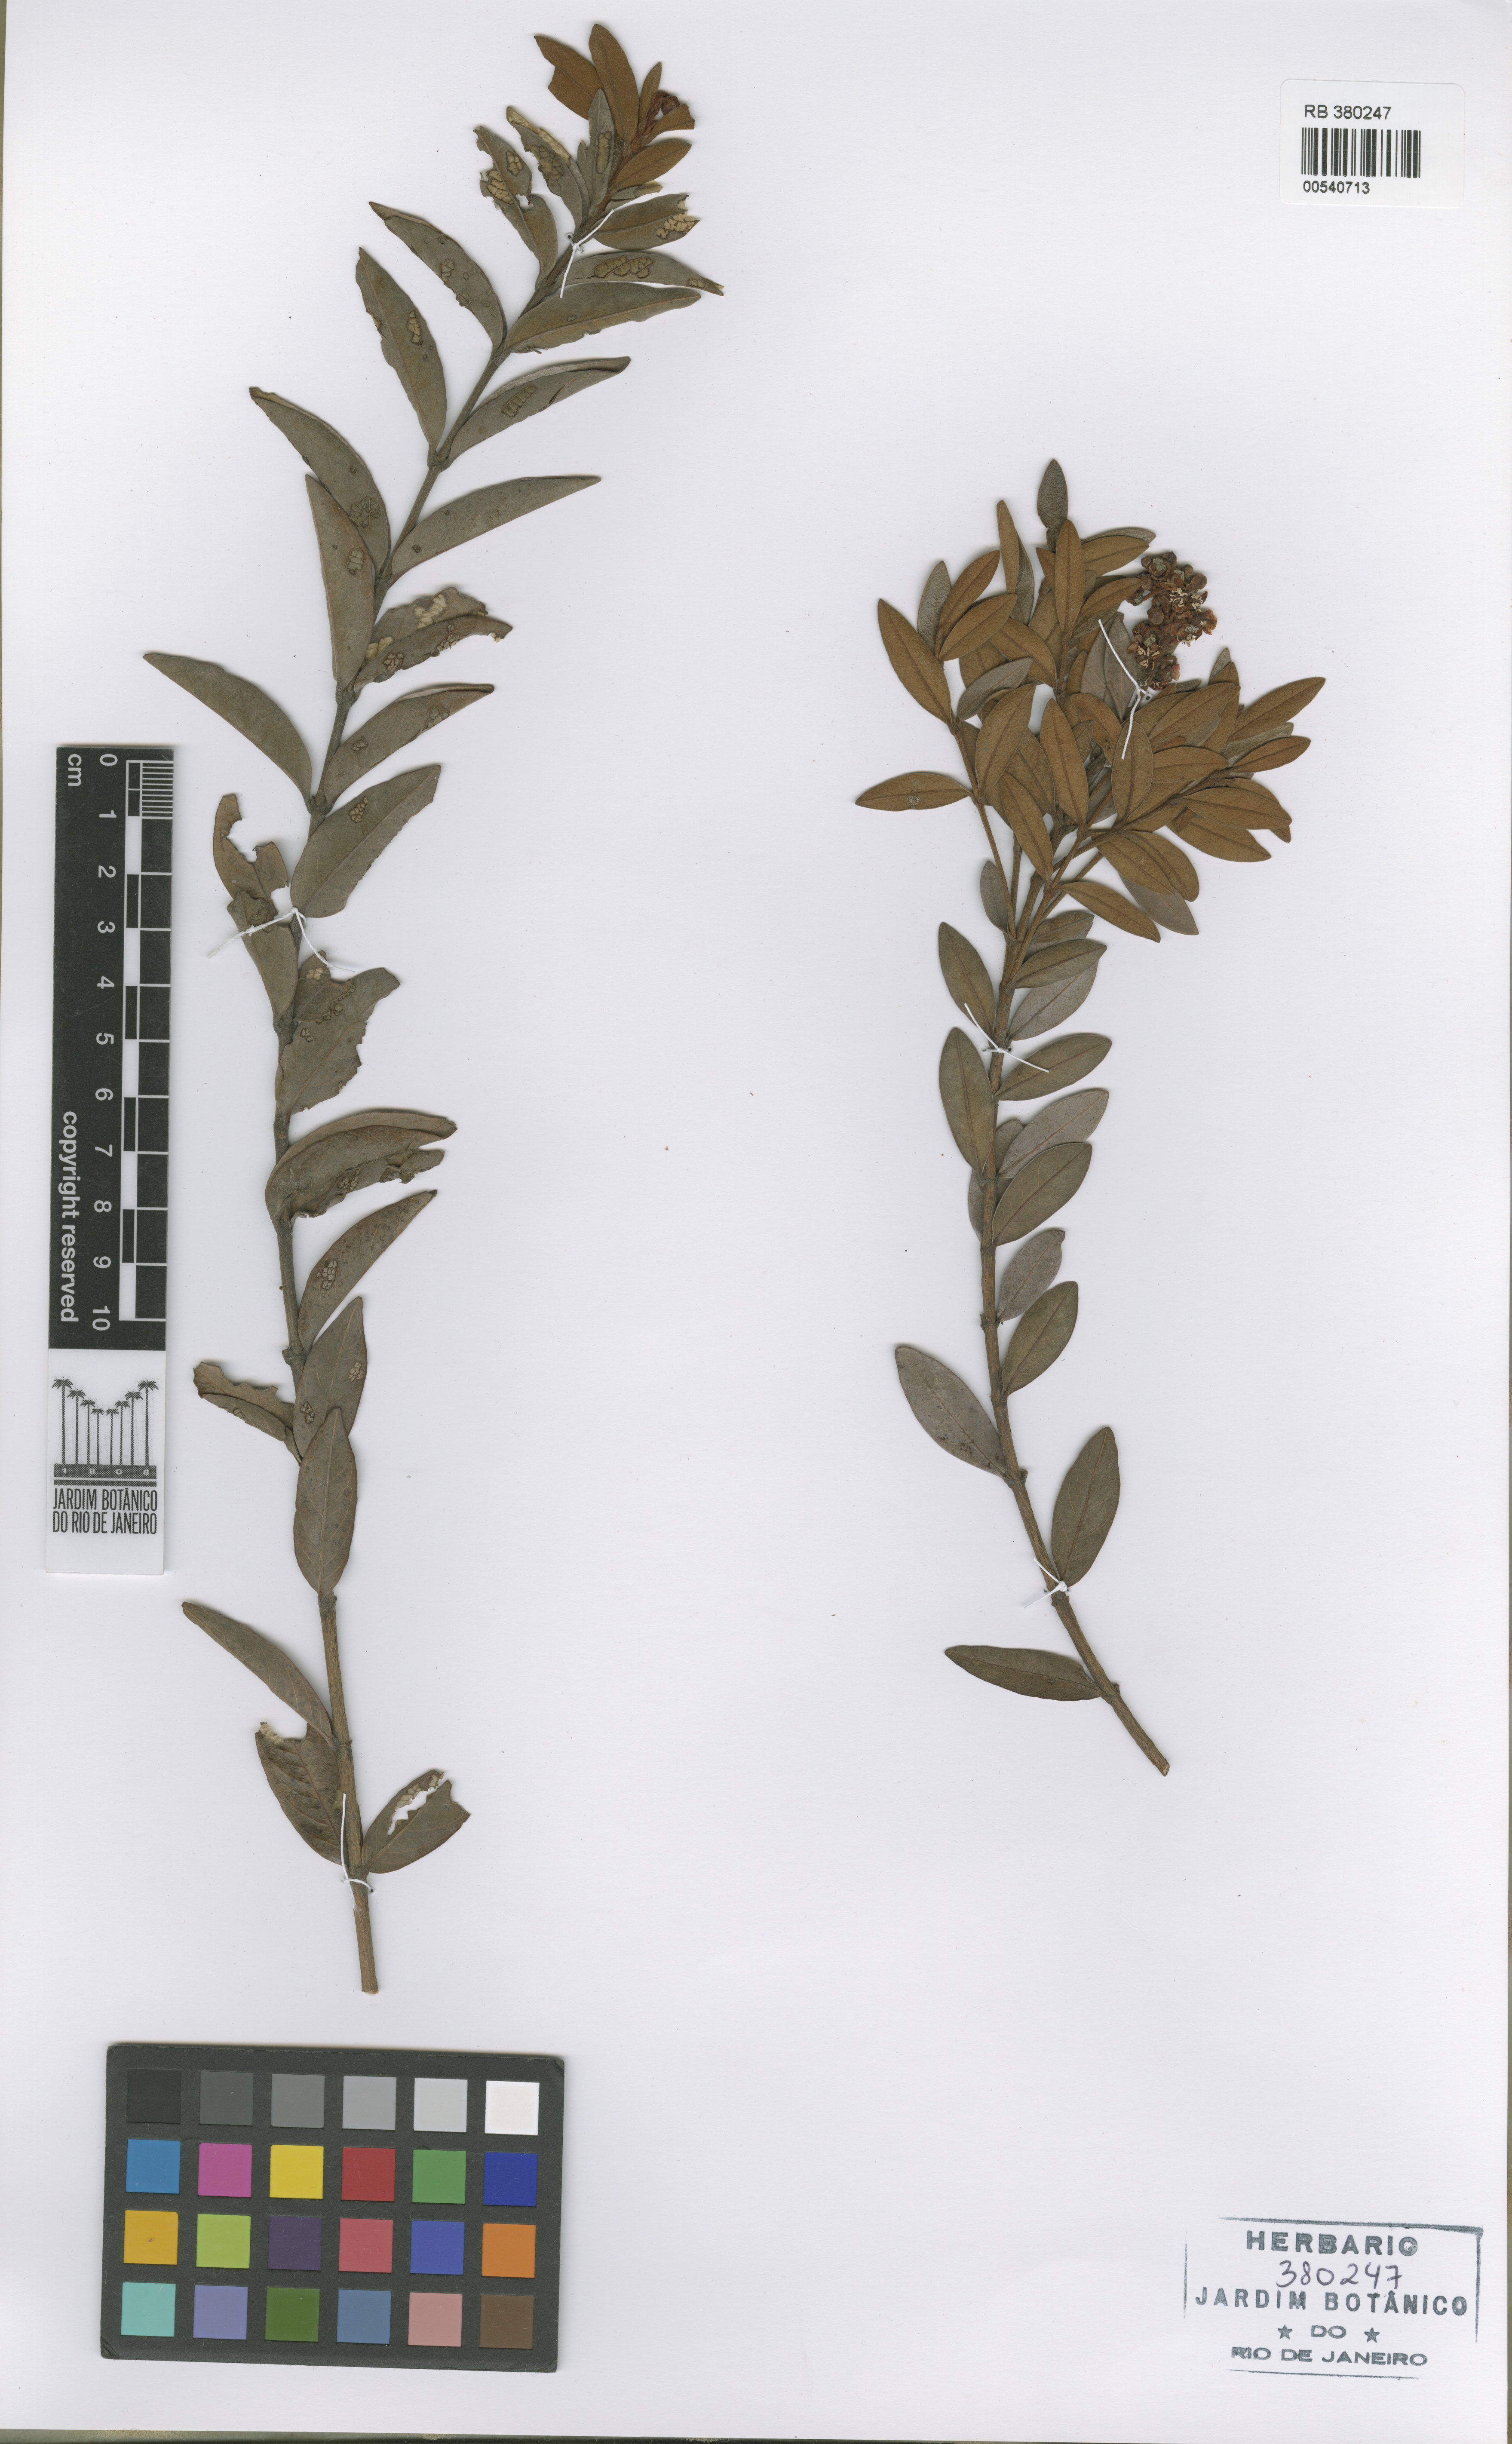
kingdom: Plantae
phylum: Tracheophyta
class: Magnoliopsida
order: Malpighiales
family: Malpighiaceae
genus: Byrsonima
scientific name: Byrsonima cipoensis
